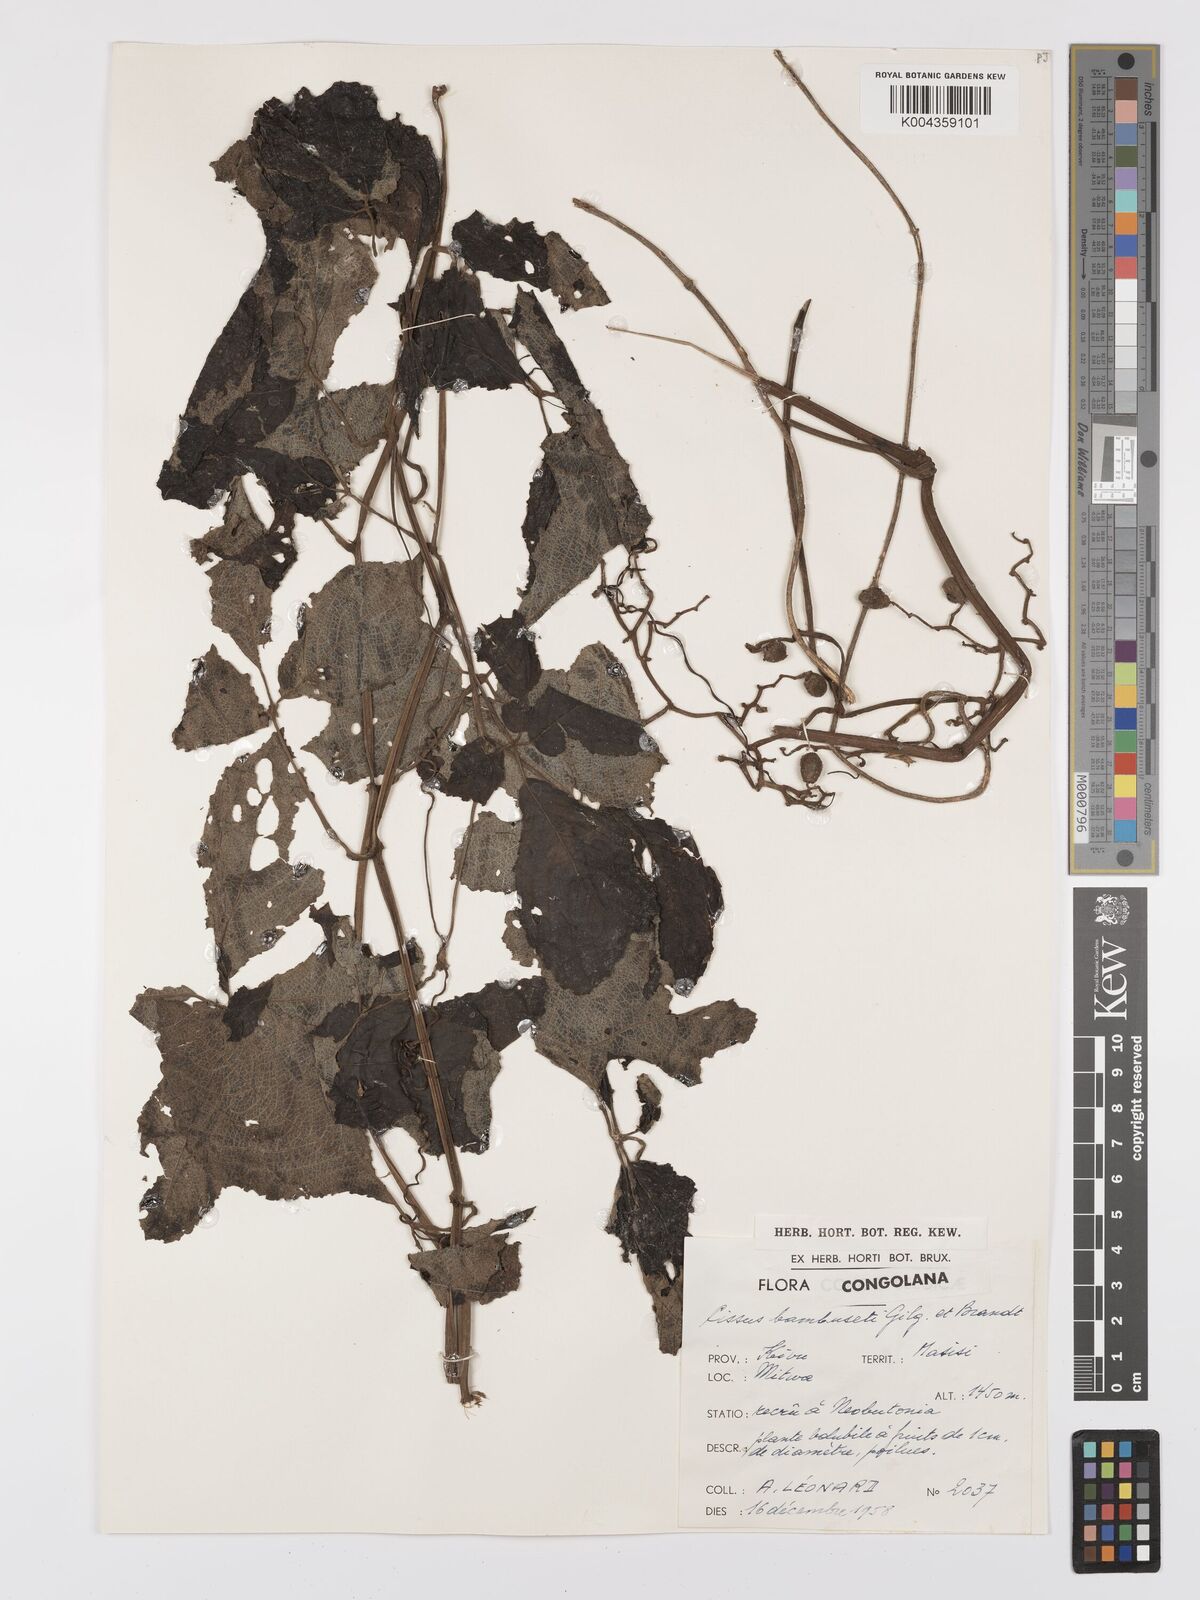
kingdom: Plantae
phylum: Tracheophyta
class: Magnoliopsida
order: Vitales
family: Vitaceae
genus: Cyphostemma
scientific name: Cyphostemma bambuseti
